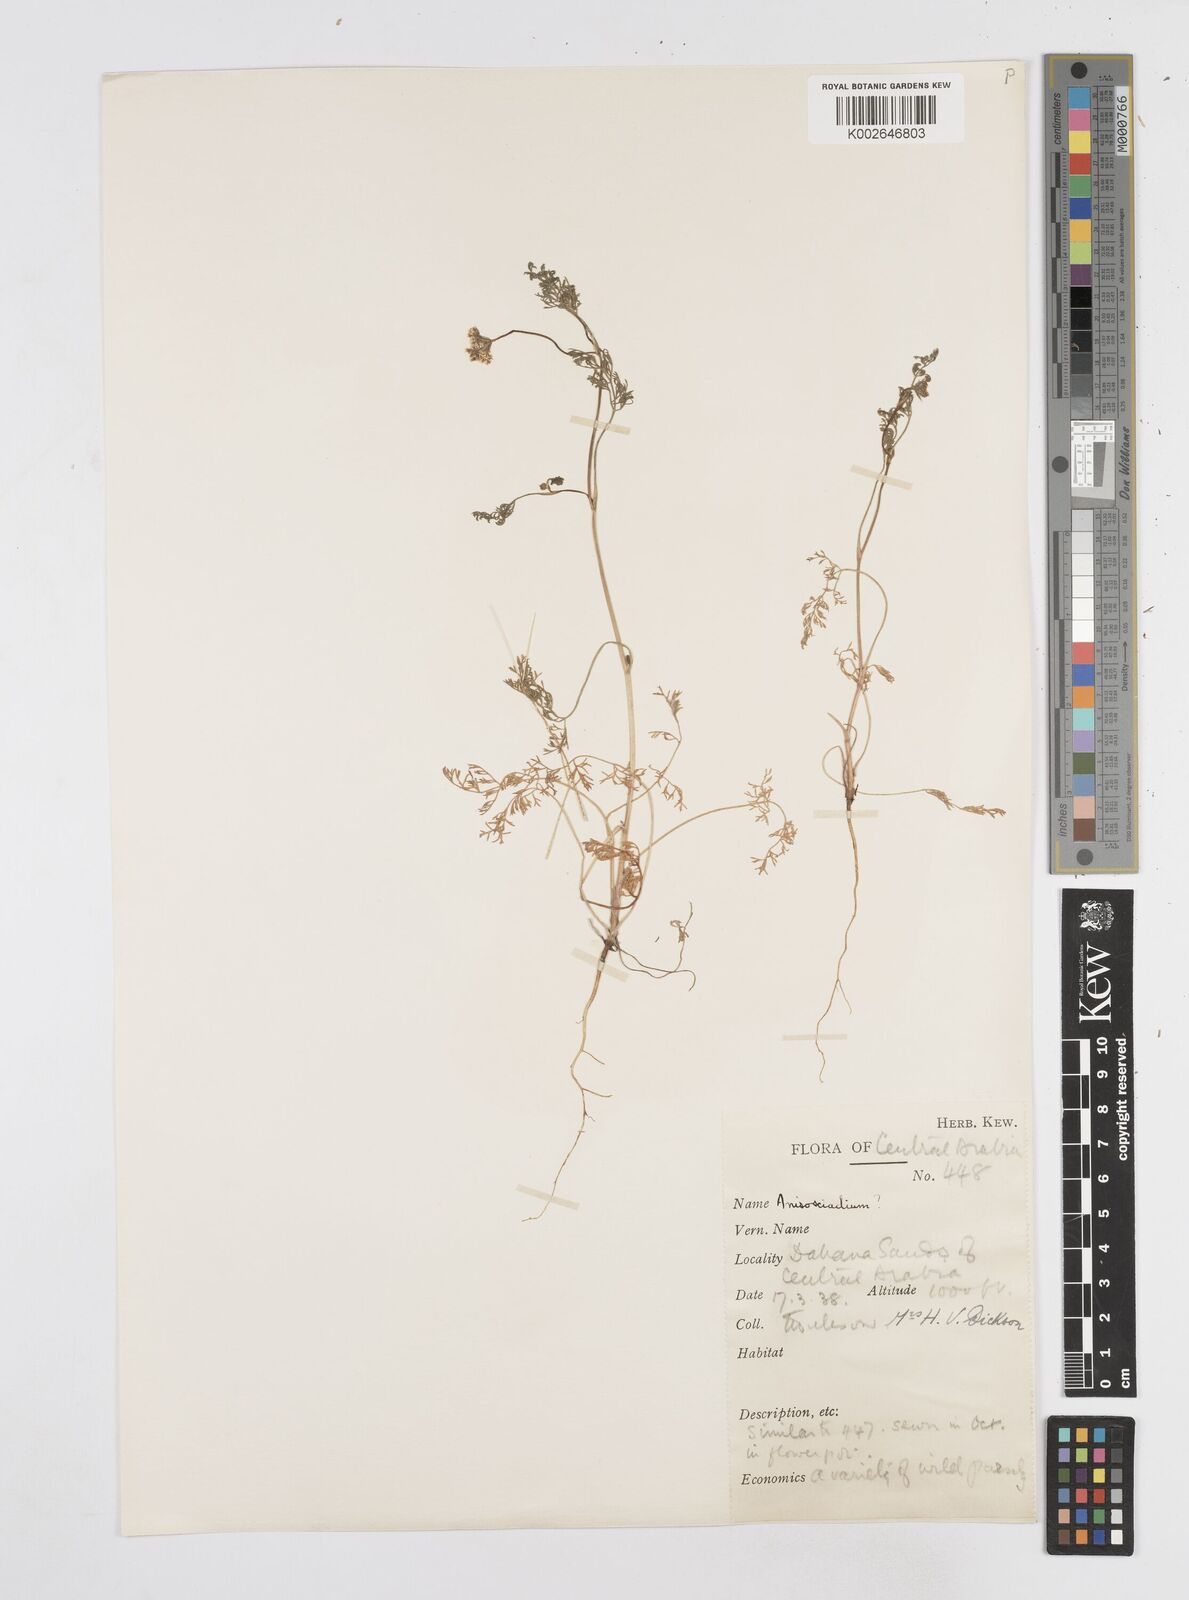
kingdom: Plantae
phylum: Tracheophyta
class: Magnoliopsida
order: Apiales
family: Apiaceae
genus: Anisosciadium
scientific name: Anisosciadium lanatum
